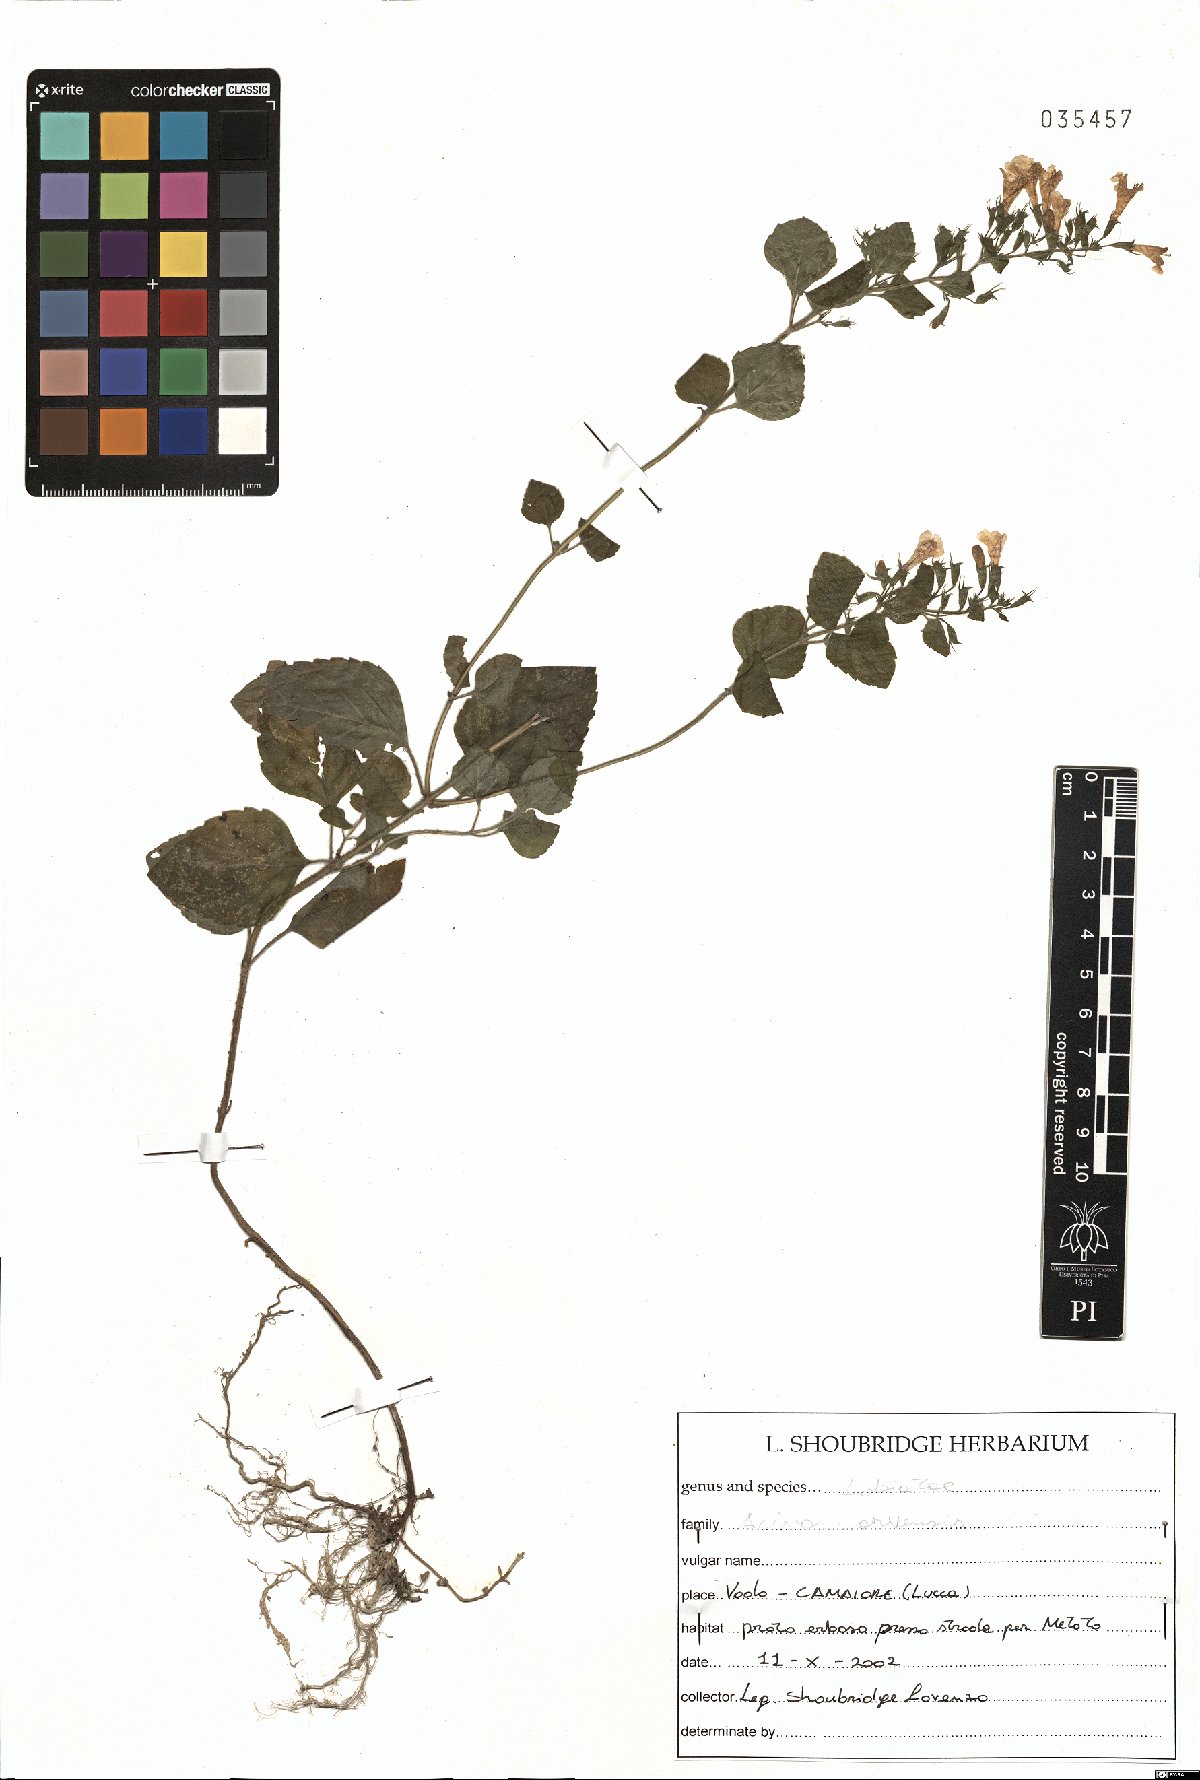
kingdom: Plantae
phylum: Tracheophyta
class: Magnoliopsida
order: Lamiales
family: Lamiaceae
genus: Clinopodium
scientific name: Clinopodium acinos
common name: Basil thyme
